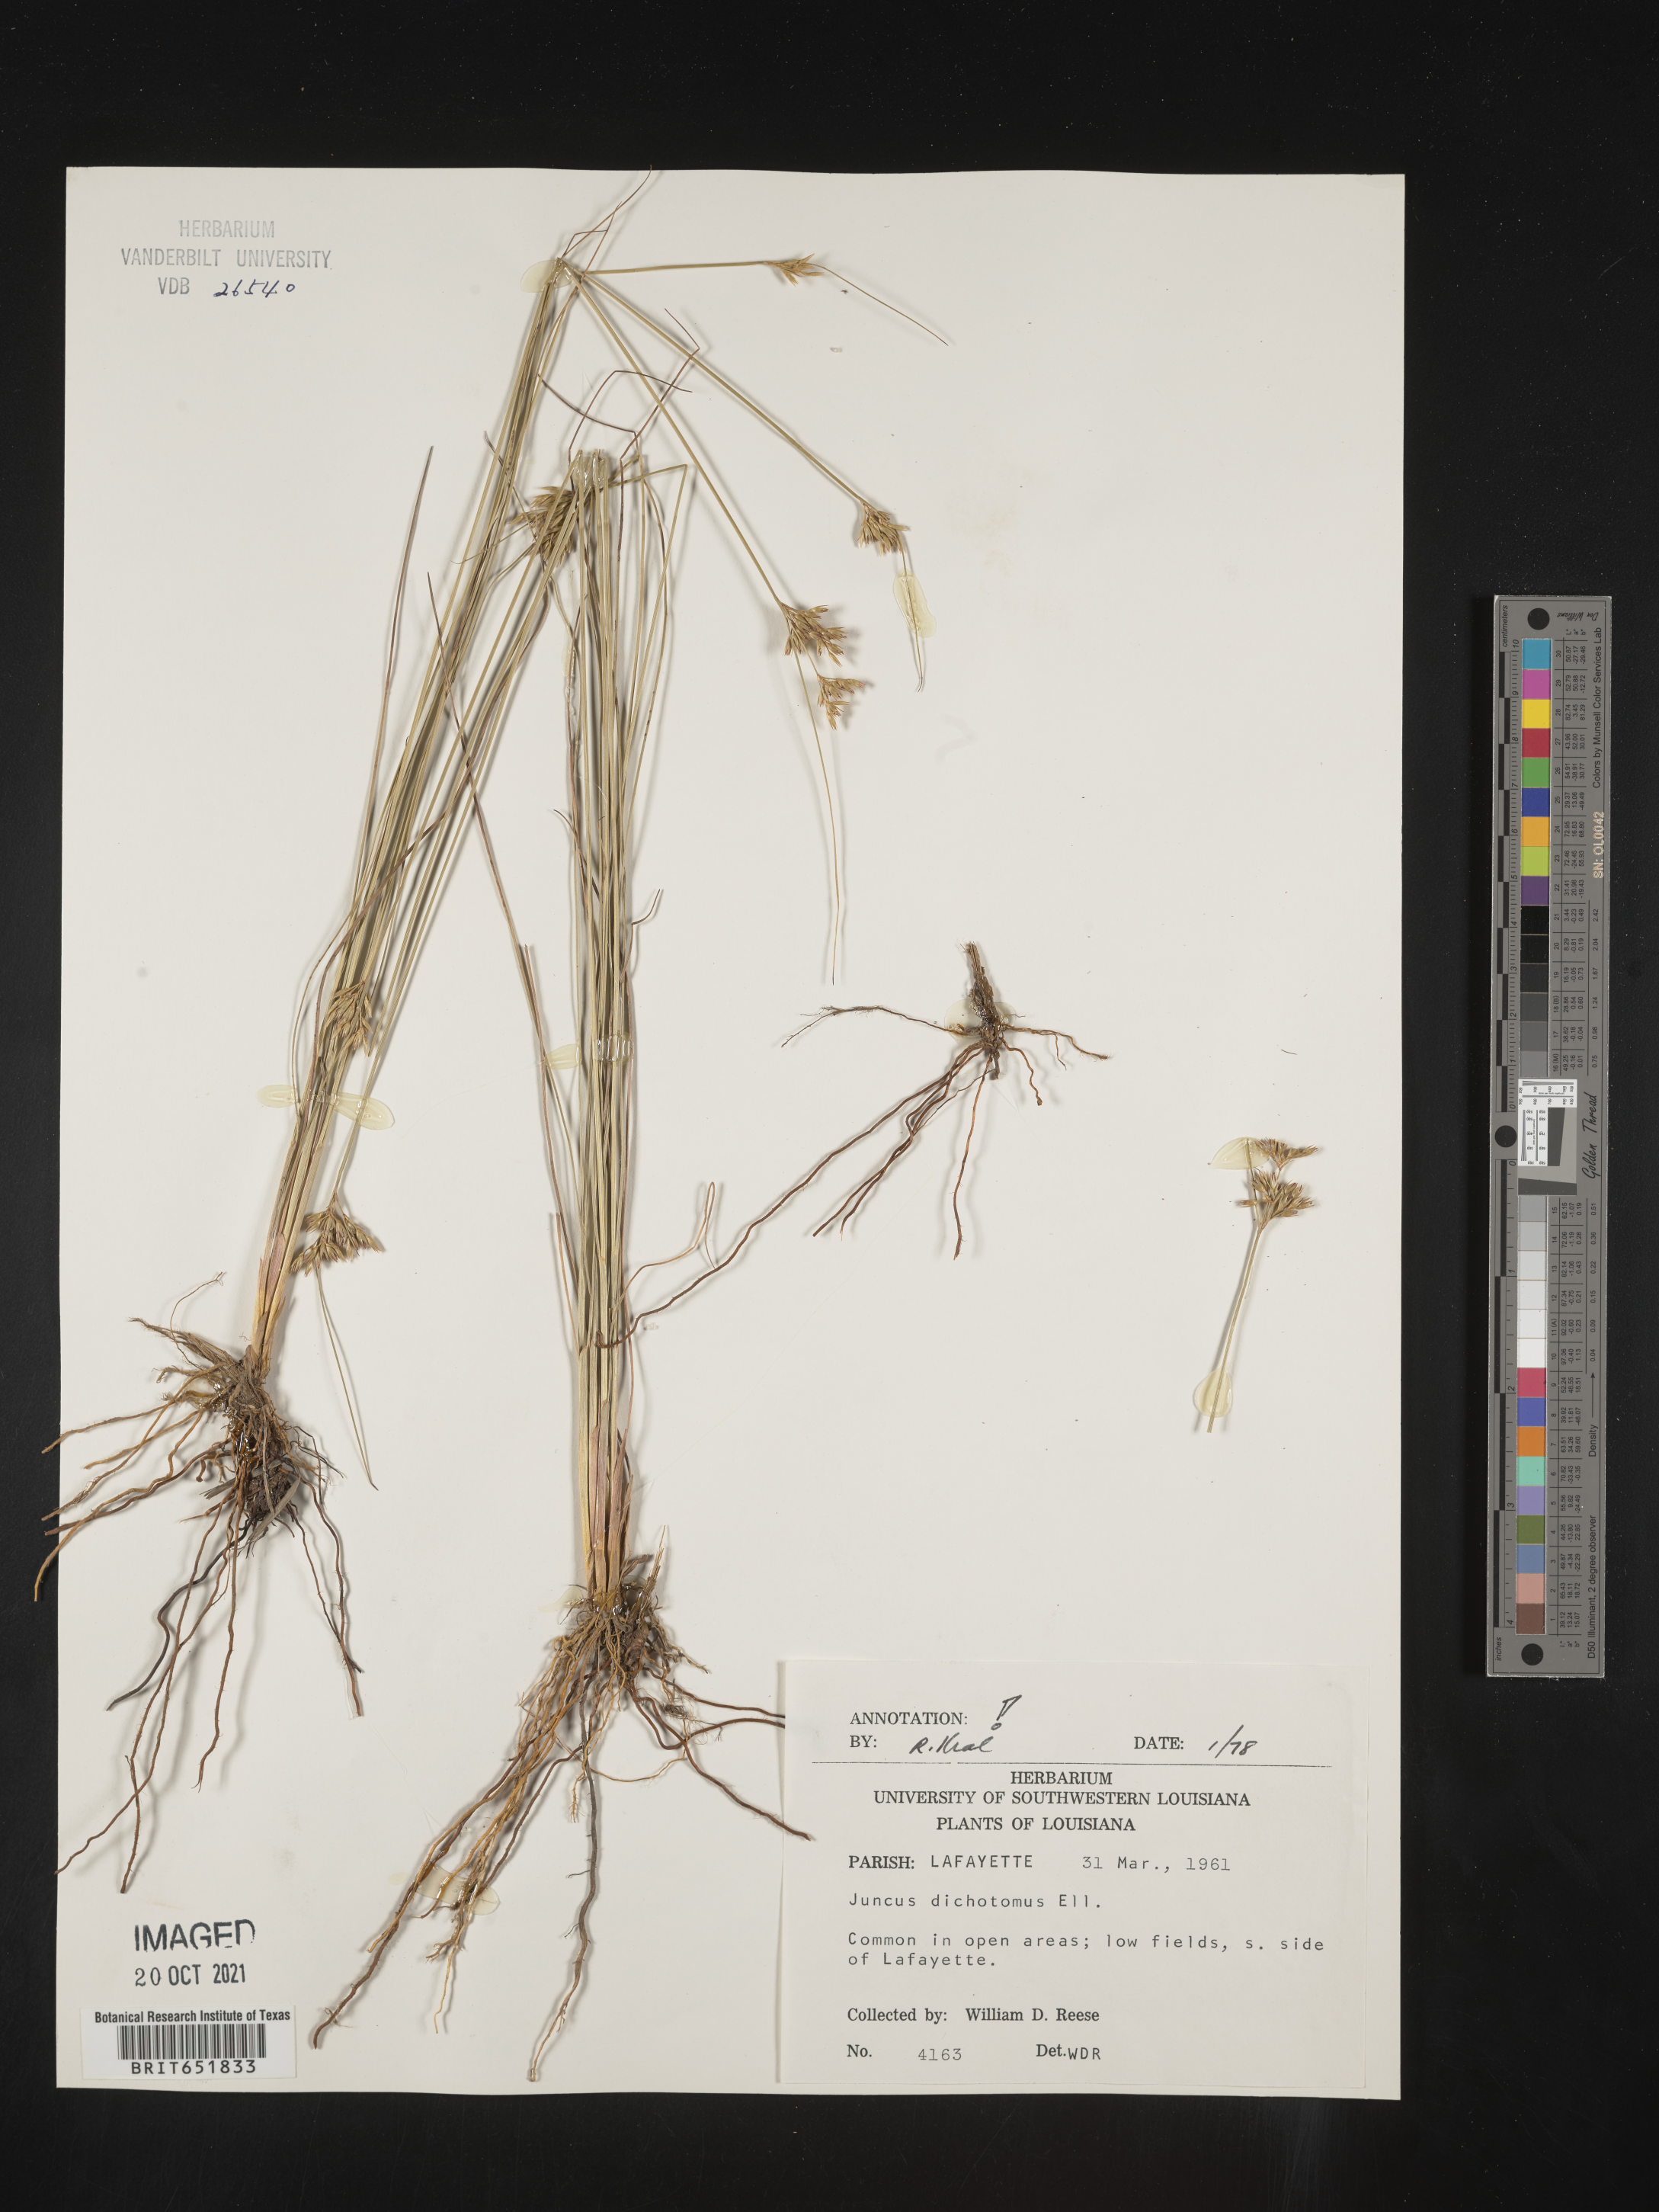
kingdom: Plantae
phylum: Tracheophyta
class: Liliopsida
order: Poales
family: Juncaceae
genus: Juncus
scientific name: Juncus dichotomus
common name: Forked rush
